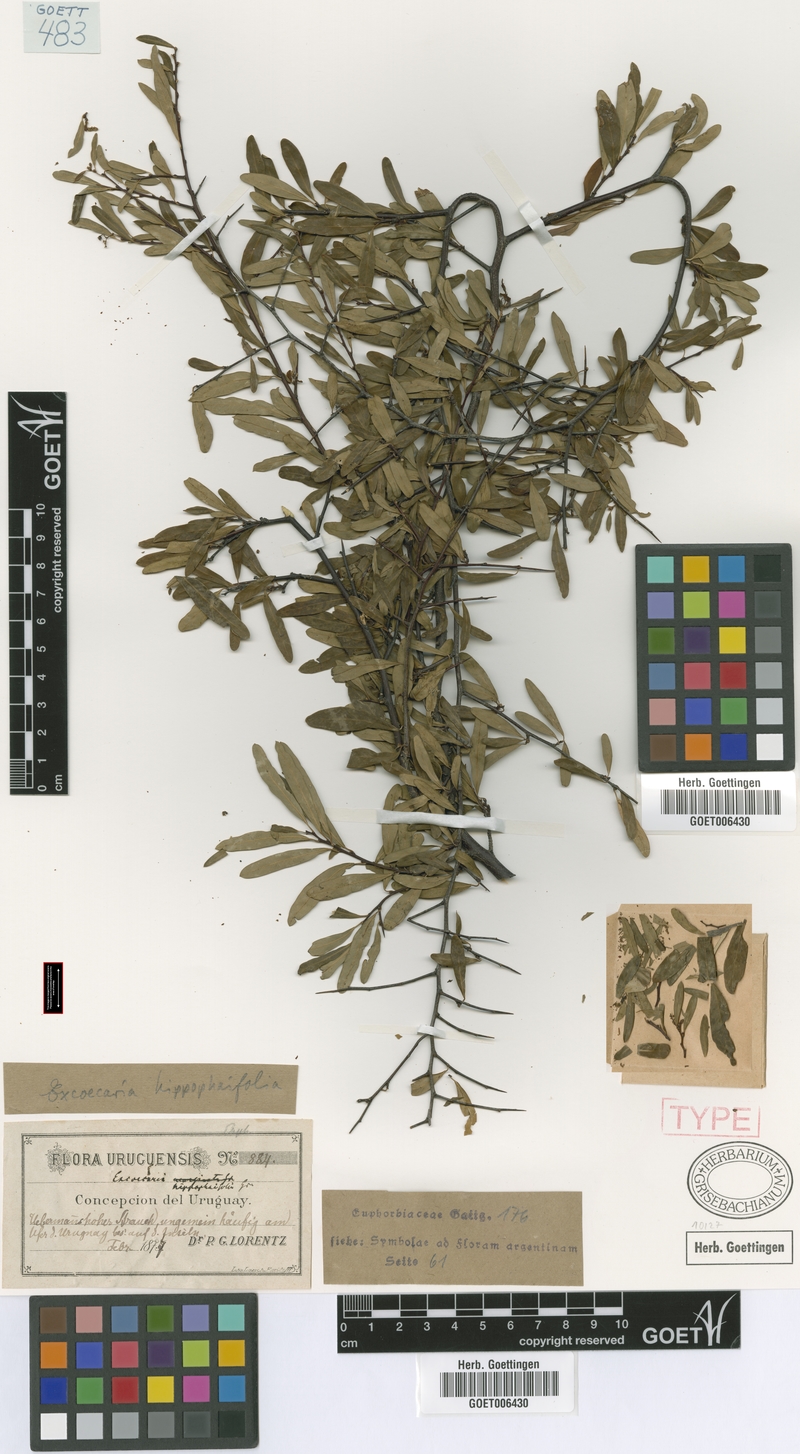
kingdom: Plantae
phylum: Tracheophyta
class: Magnoliopsida
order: Malpighiales
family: Euphorbiaceae
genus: Sebastiania
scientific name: Sebastiania schottiana
